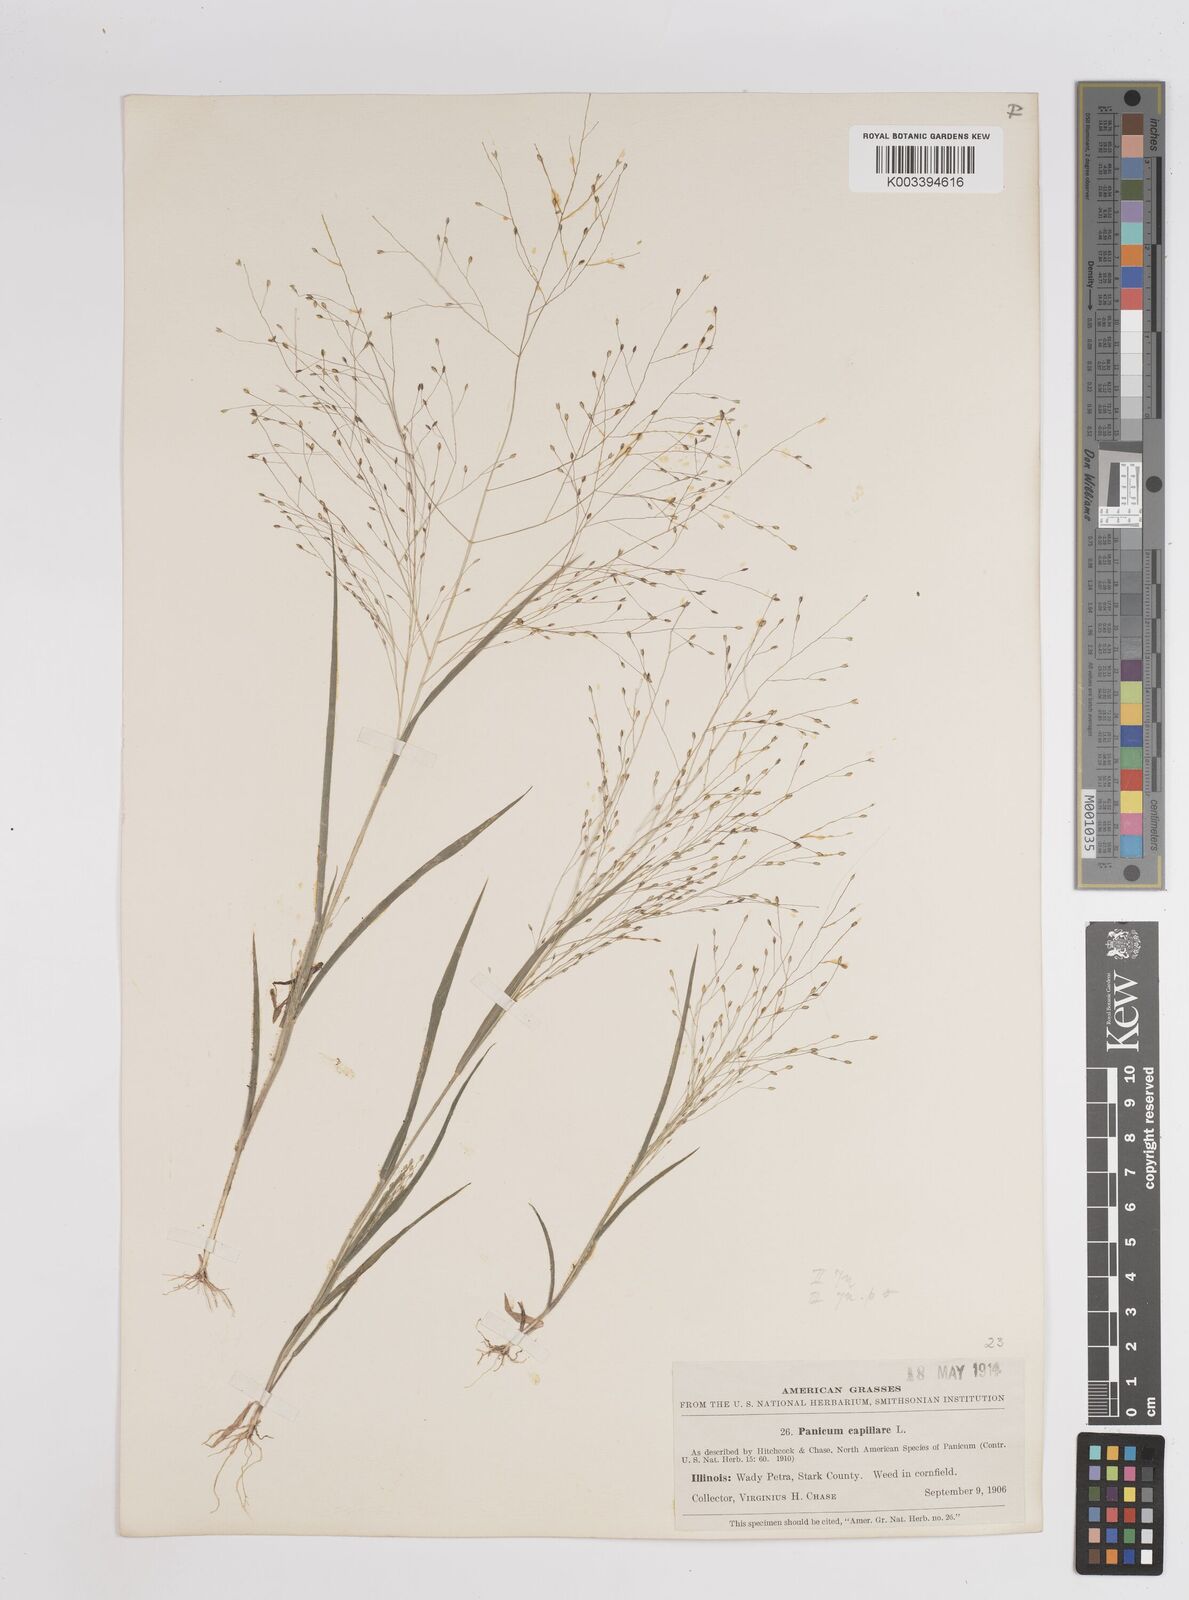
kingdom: Plantae
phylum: Tracheophyta
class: Liliopsida
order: Poales
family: Poaceae
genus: Panicum
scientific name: Panicum capillare
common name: Witch-grass
